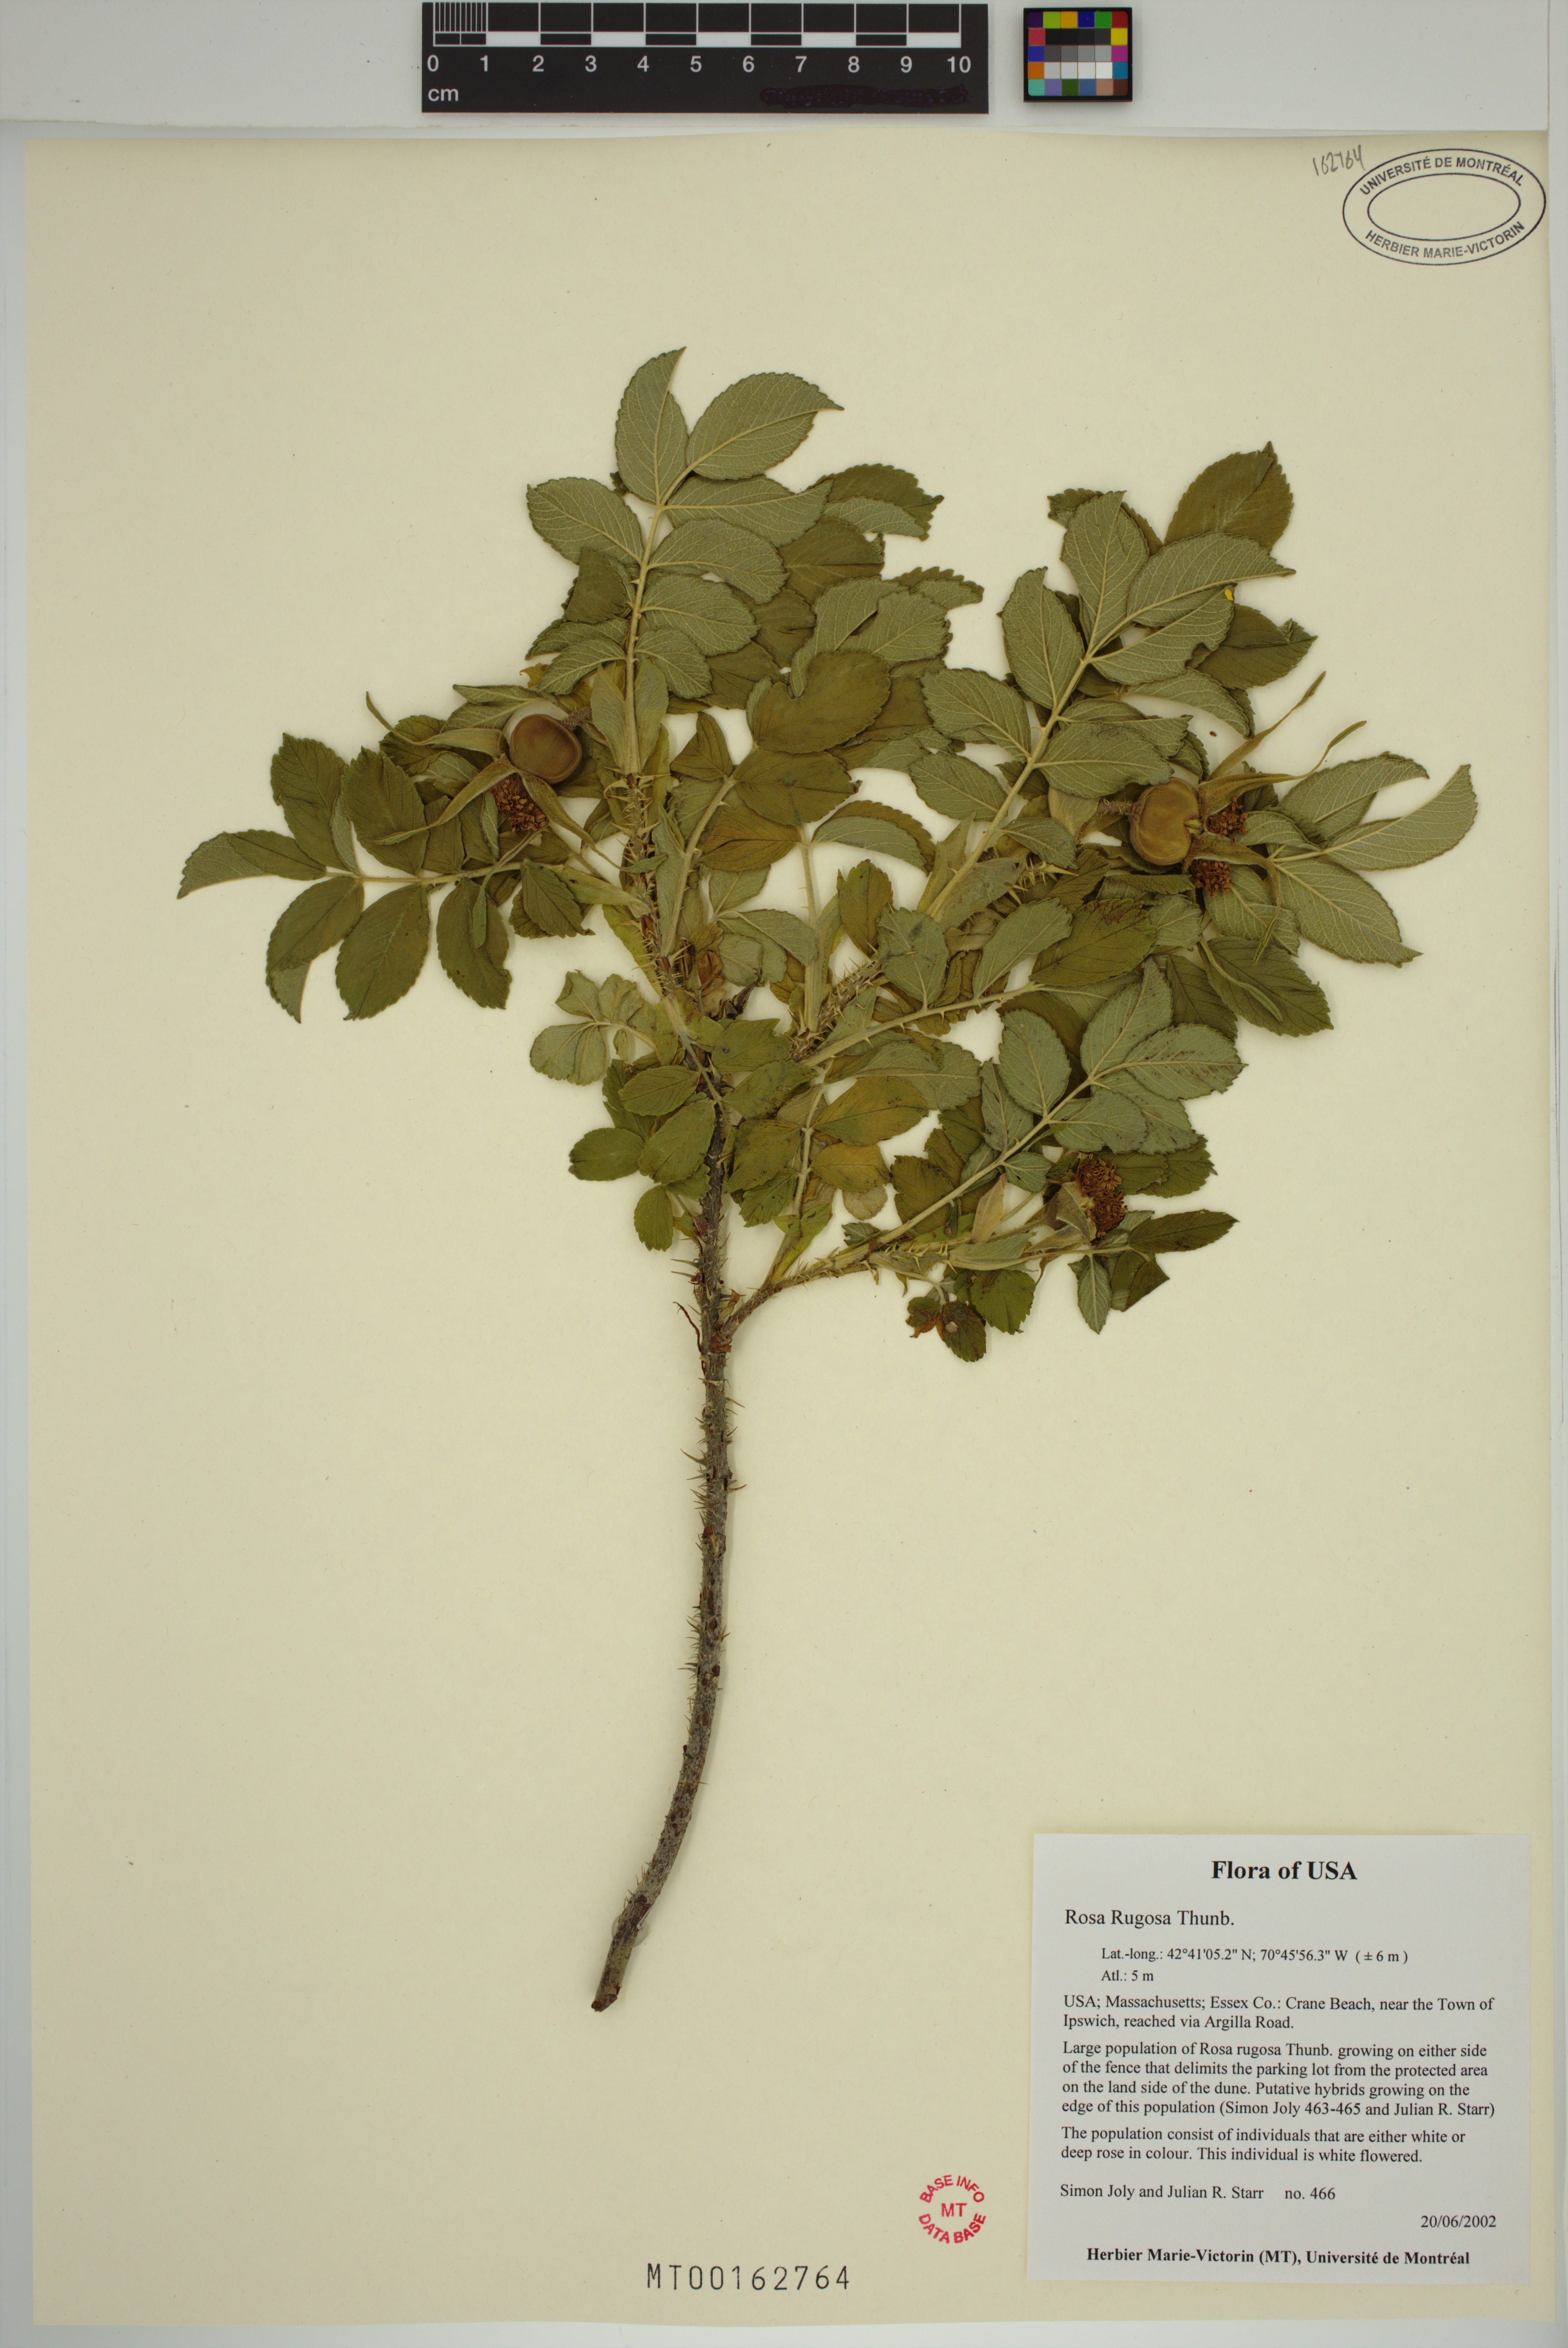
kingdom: Plantae
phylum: Tracheophyta
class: Magnoliopsida
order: Rosales
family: Rosaceae
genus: Rosa
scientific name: Rosa rugosa
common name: Japanese rose
